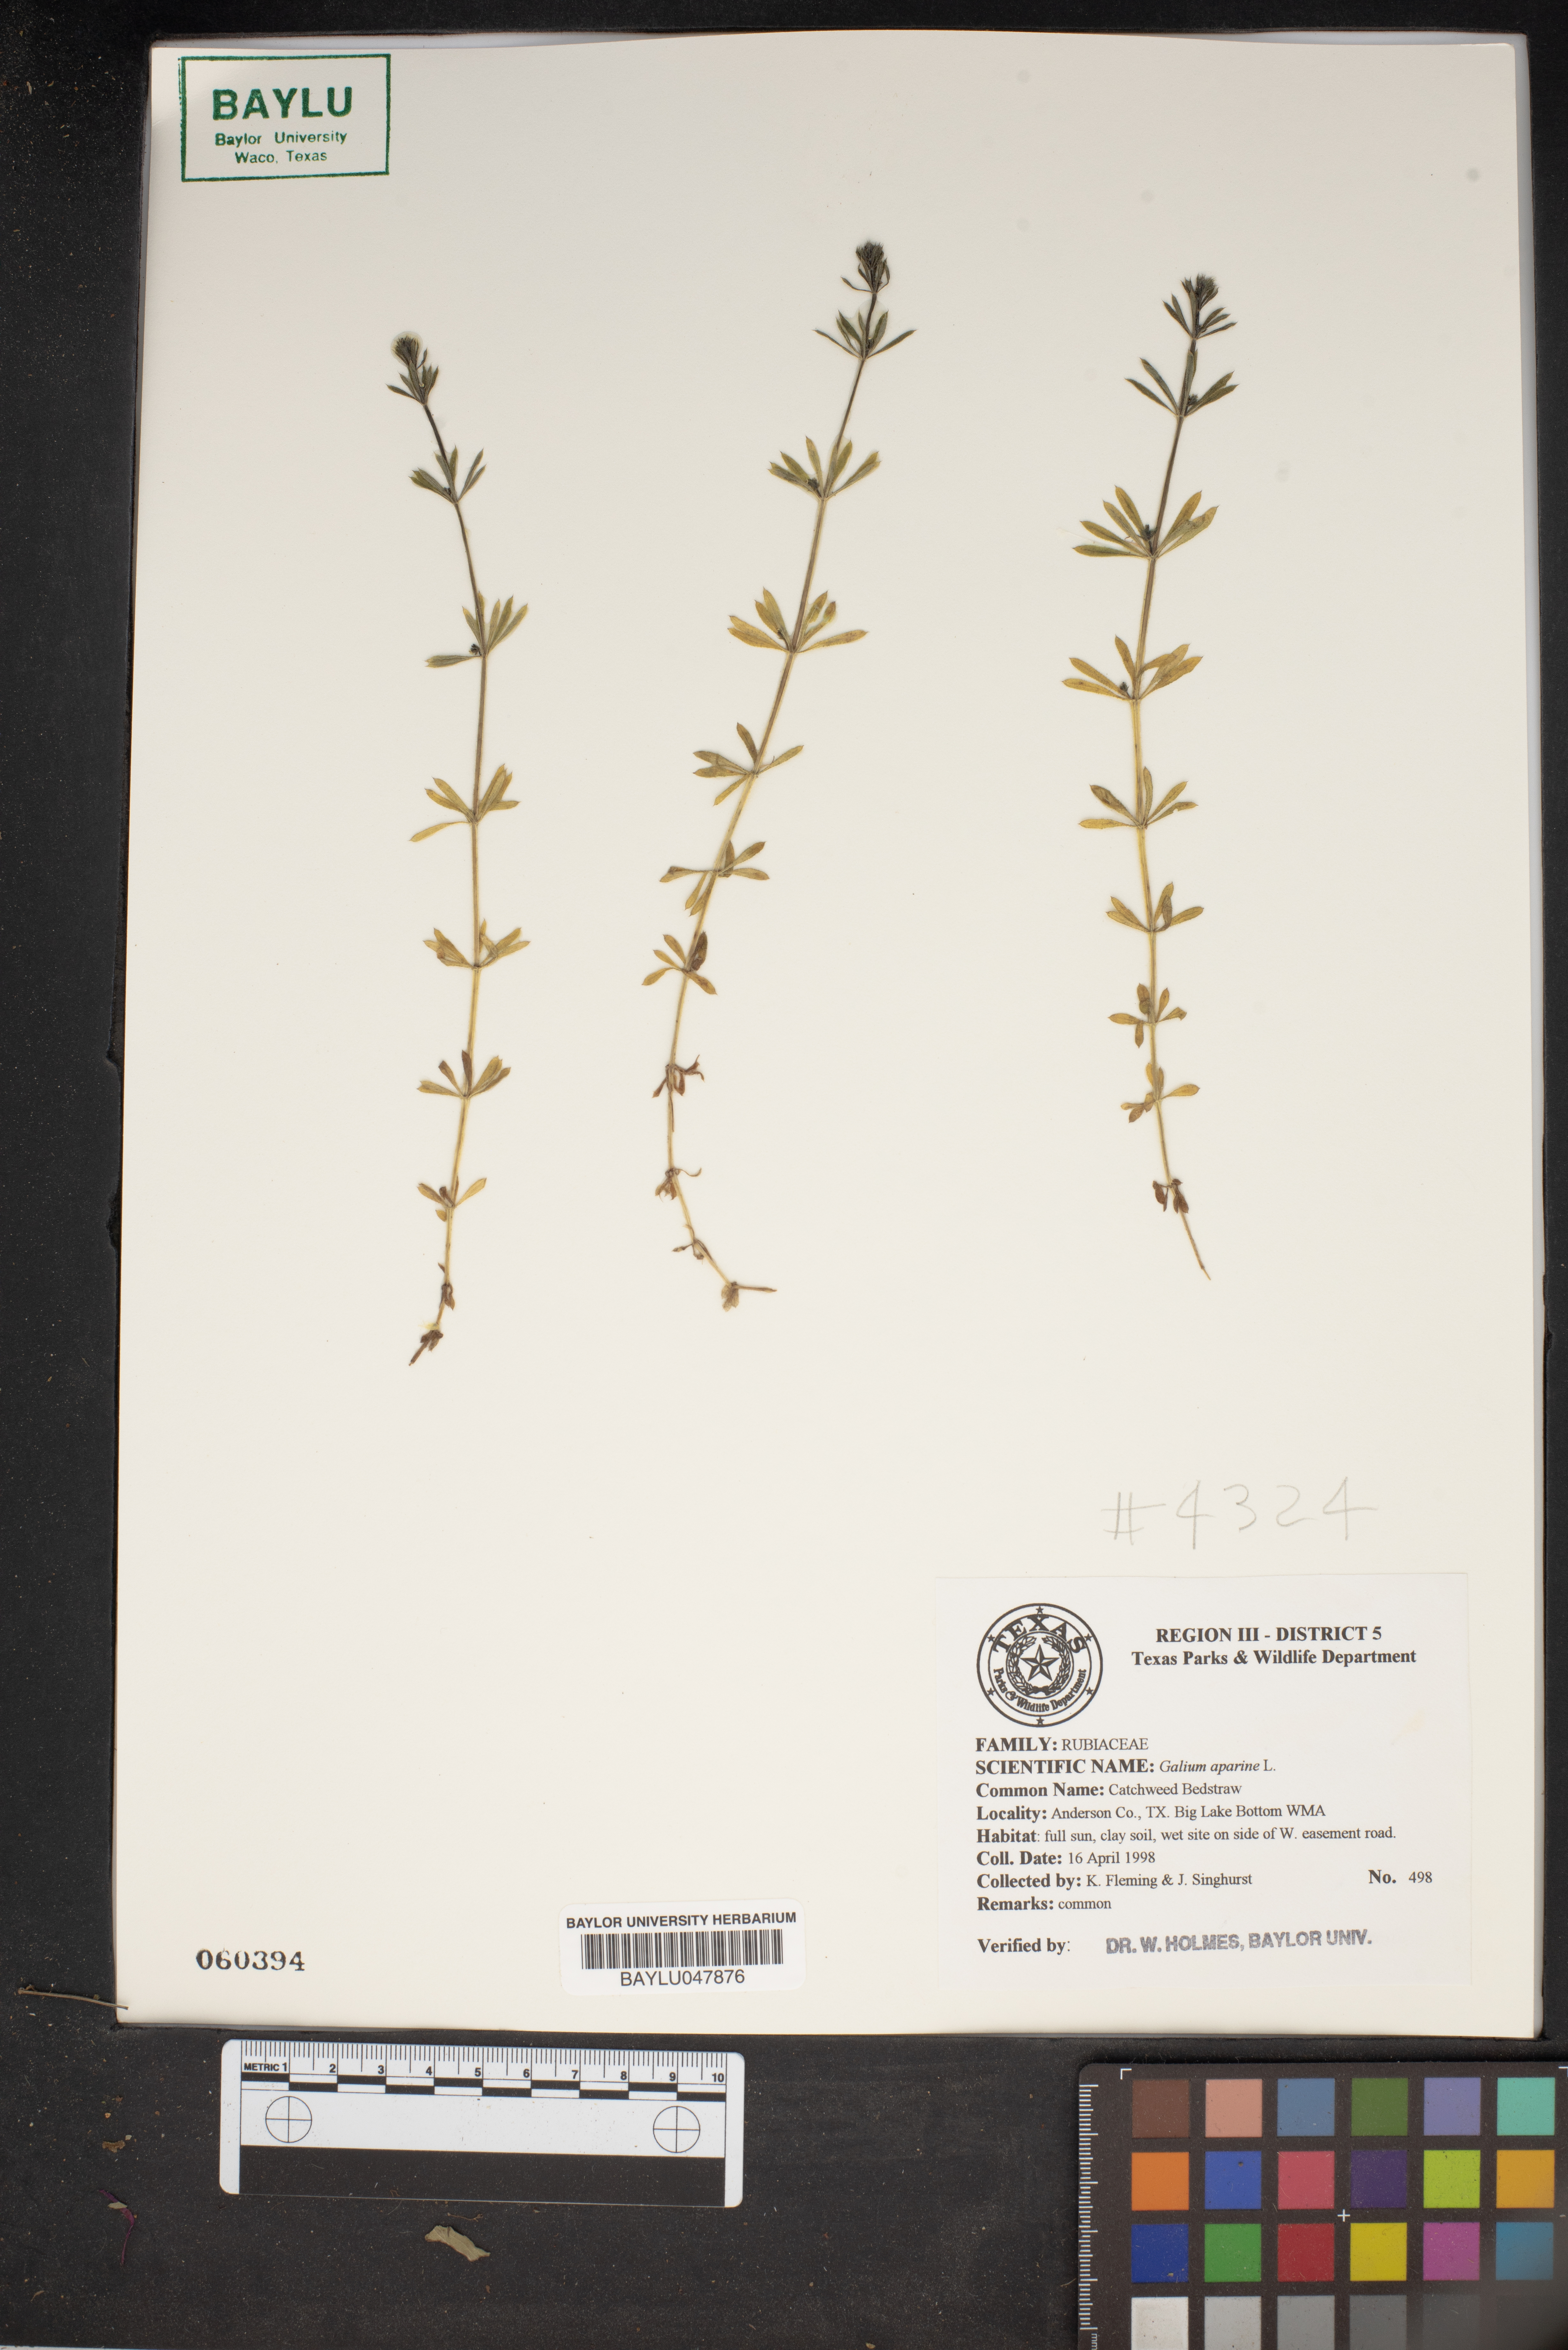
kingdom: Plantae
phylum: Tracheophyta
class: Magnoliopsida
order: Gentianales
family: Rubiaceae
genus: Galium
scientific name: Galium aparine
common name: Cleavers
